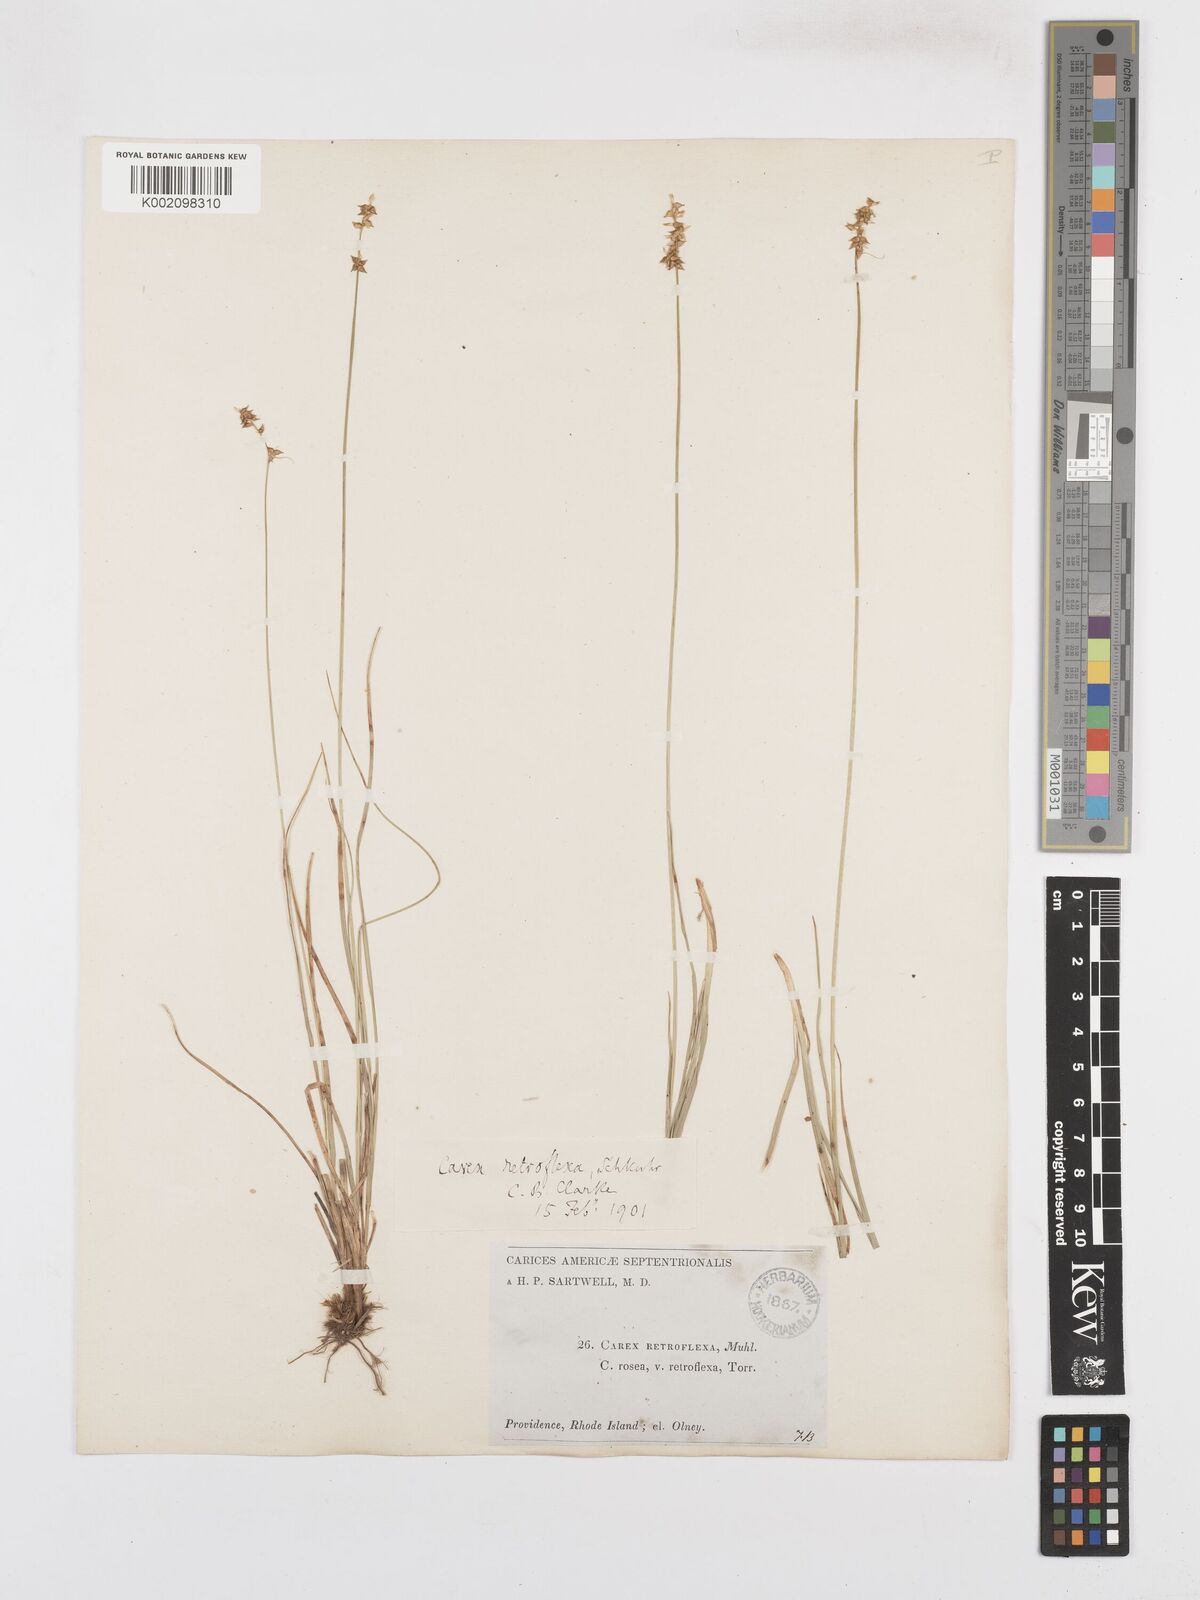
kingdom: Plantae
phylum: Tracheophyta
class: Liliopsida
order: Poales
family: Cyperaceae
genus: Carex
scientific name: Carex retroflexa
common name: Reflexed sedge
